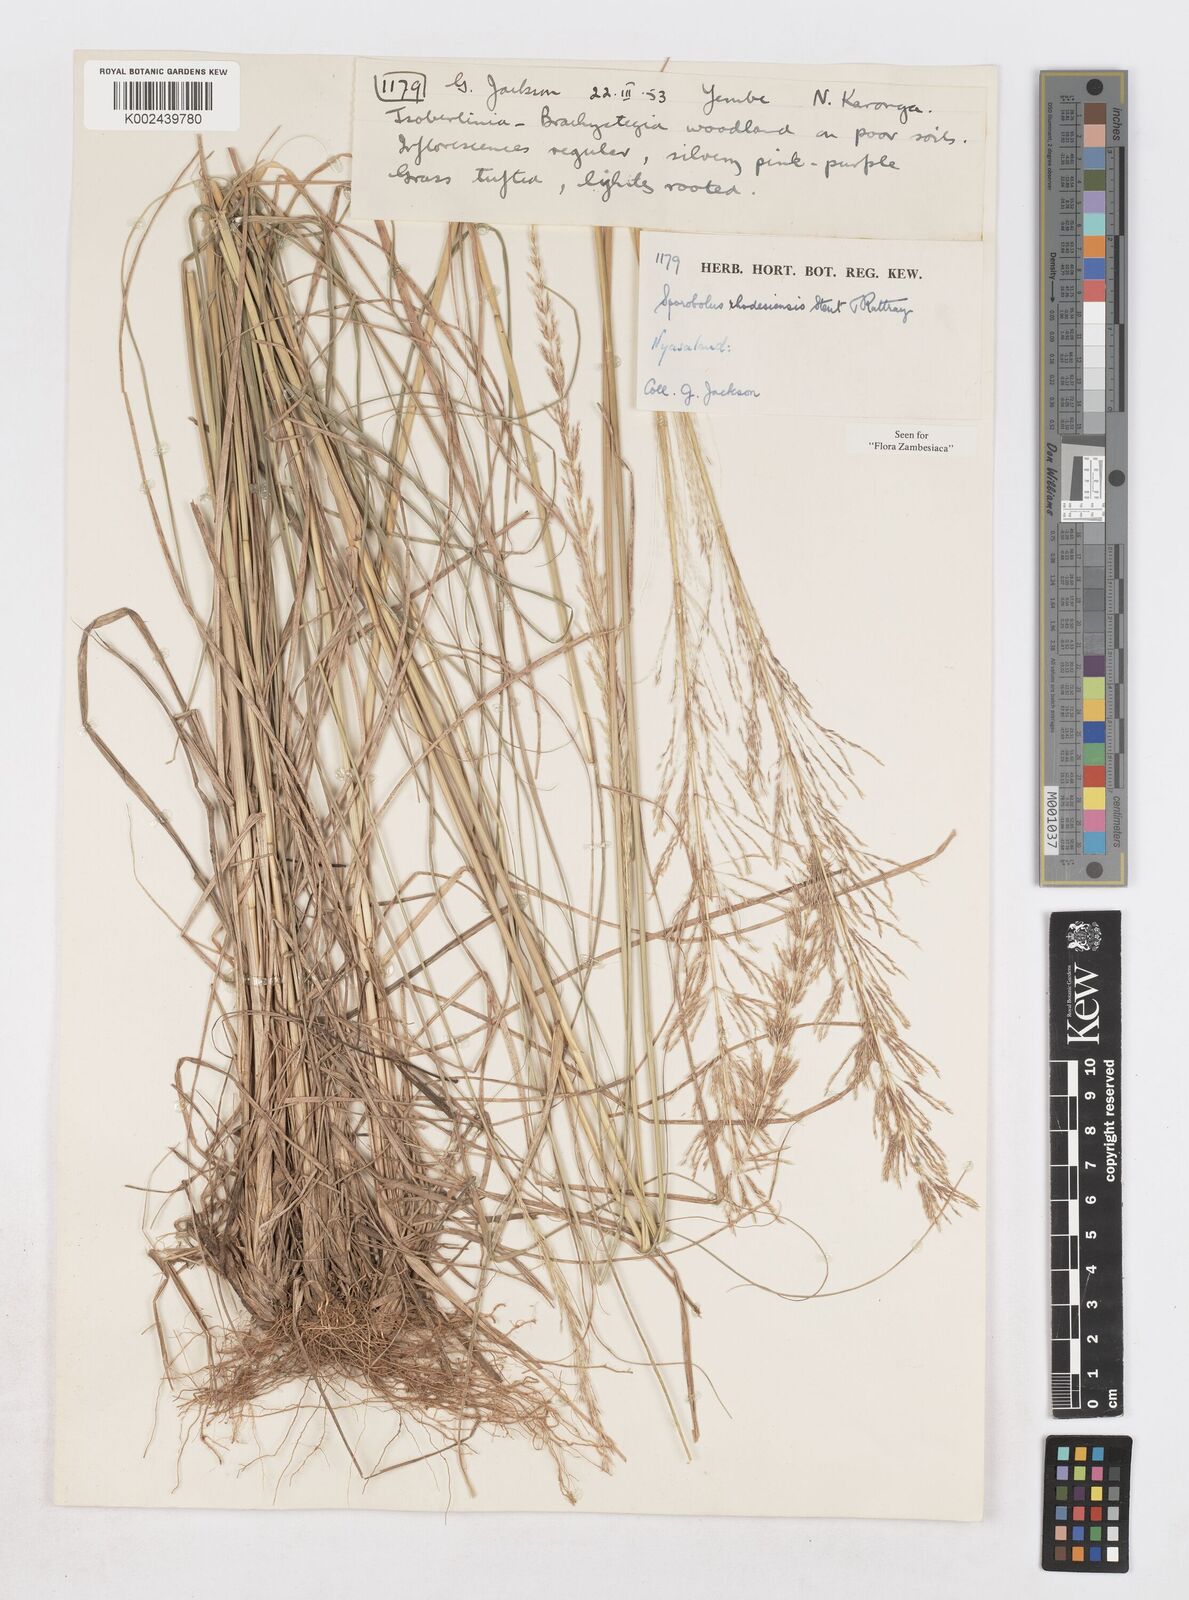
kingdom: Plantae
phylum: Tracheophyta
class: Liliopsida
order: Poales
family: Poaceae
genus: Sporobolus
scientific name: Sporobolus sanguineus
